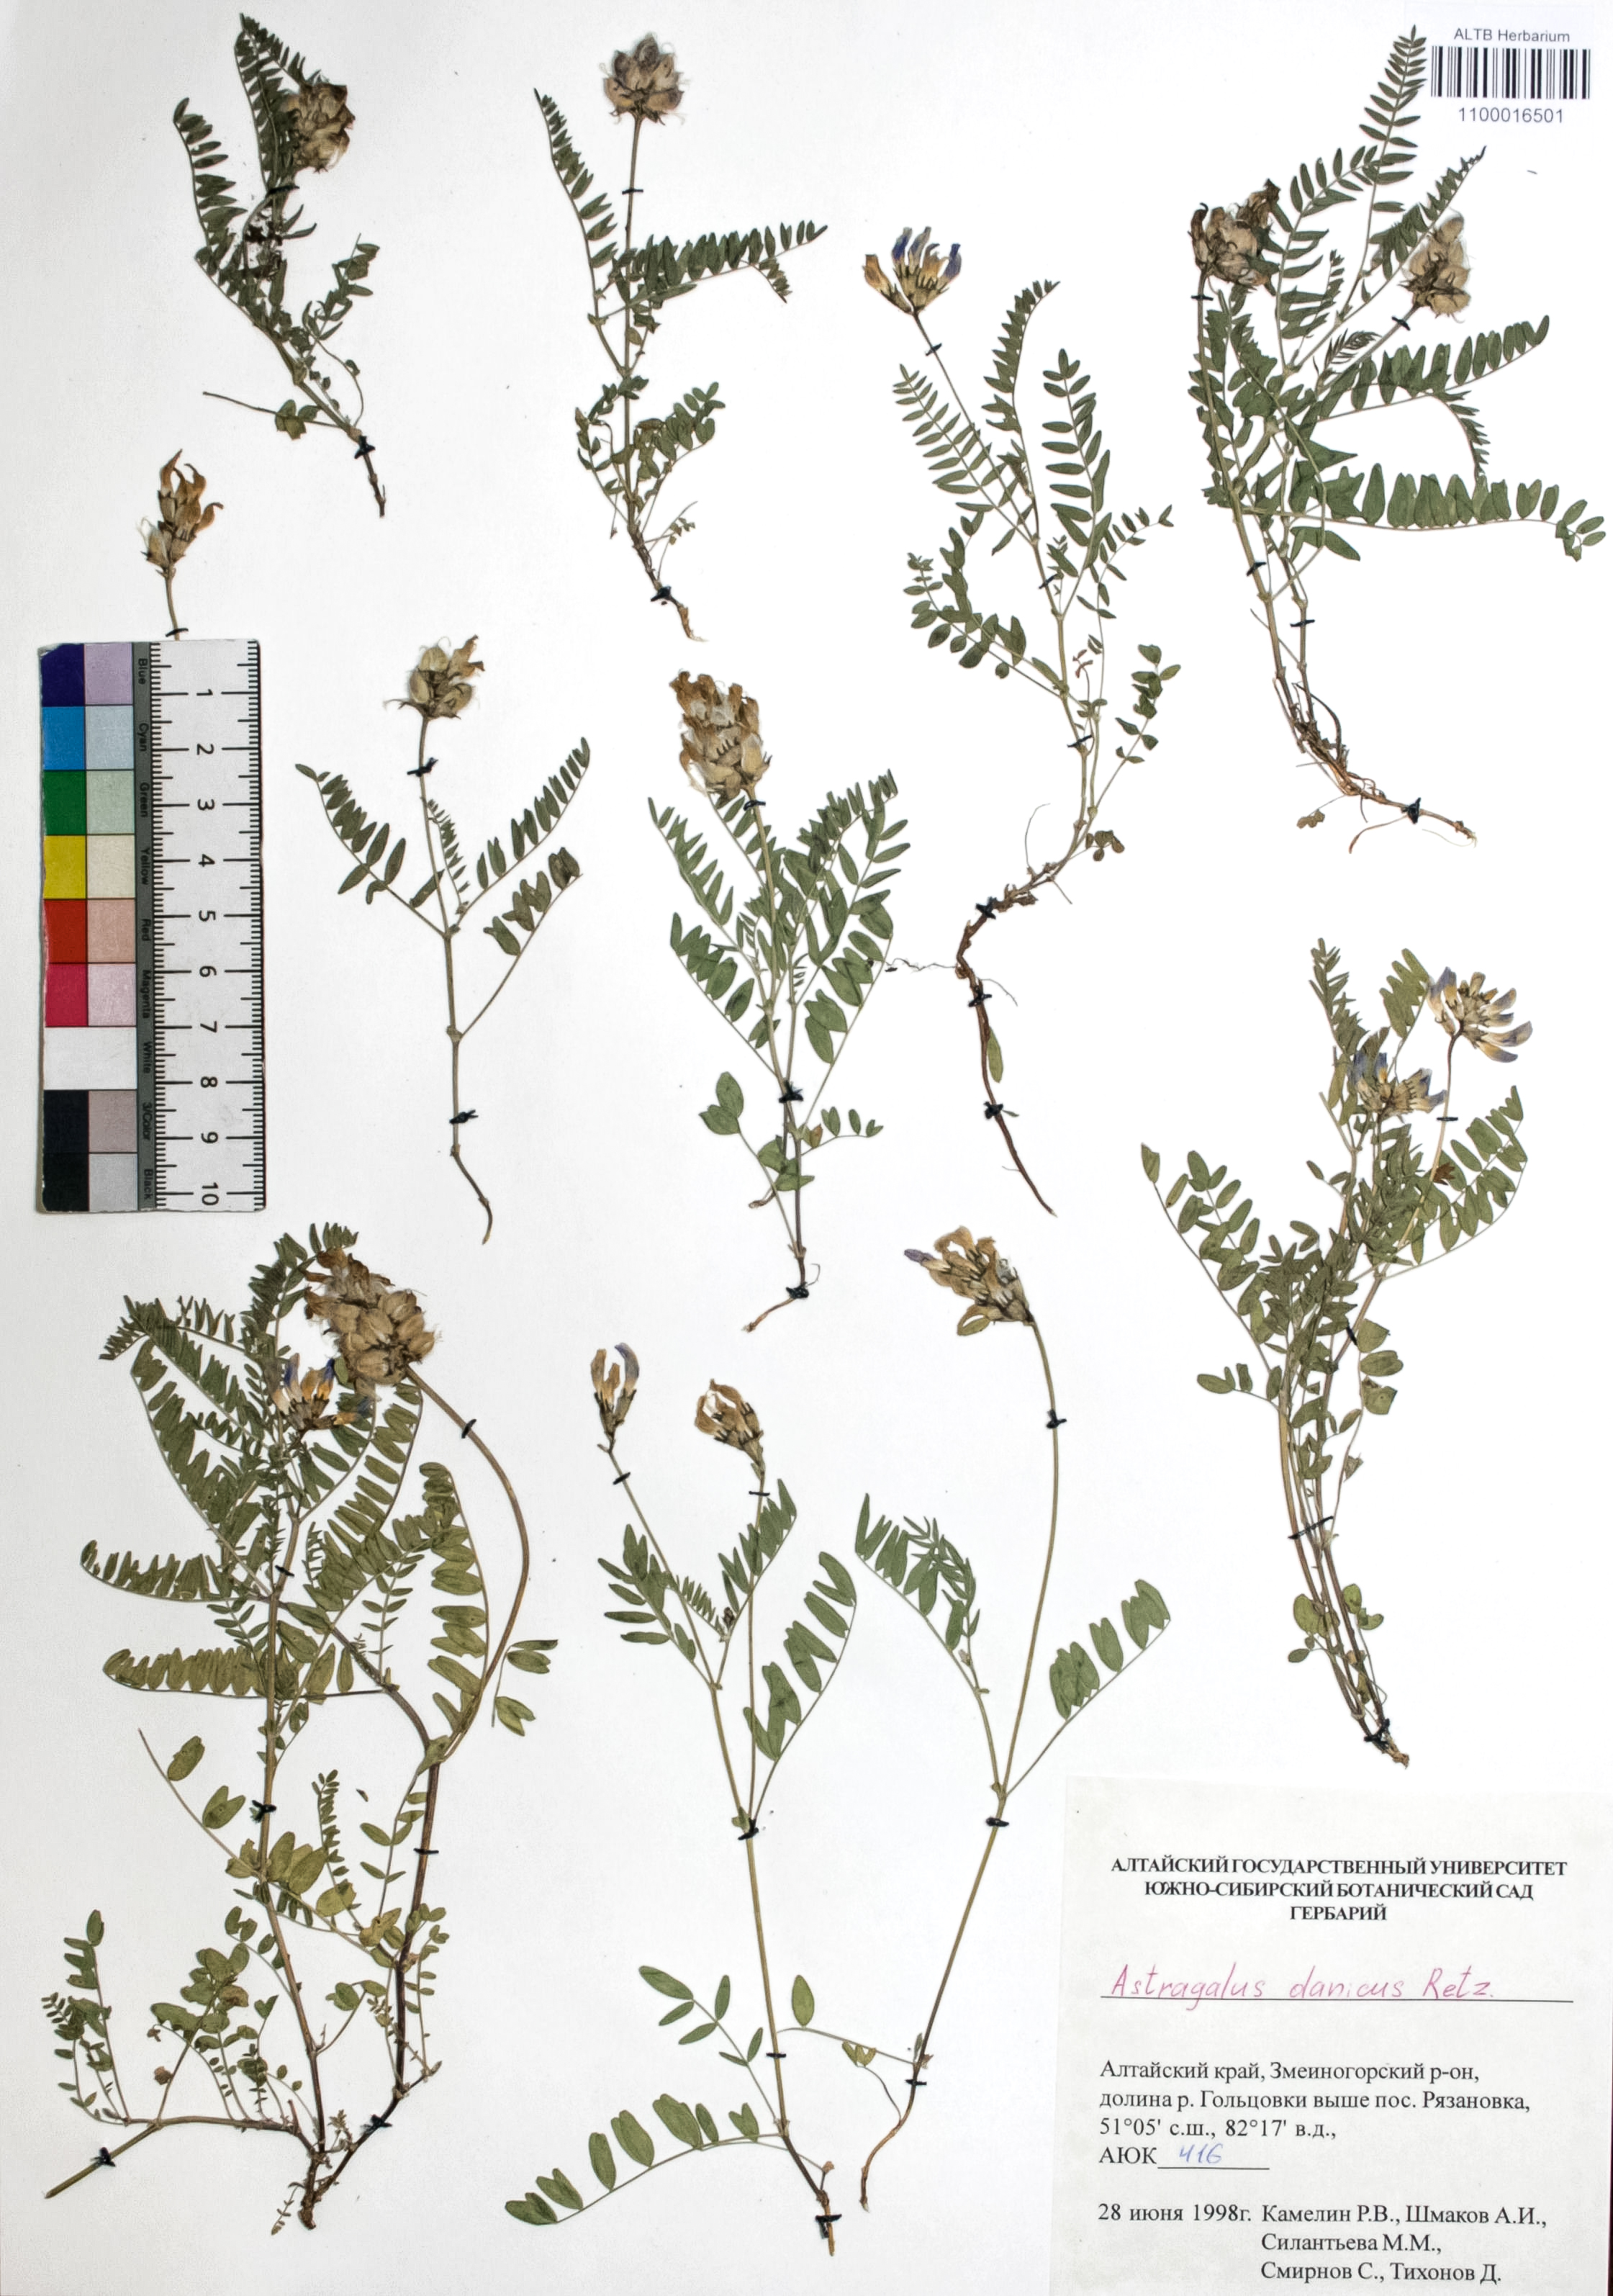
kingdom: Plantae
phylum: Tracheophyta
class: Magnoliopsida
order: Fabales
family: Fabaceae
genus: Astragalus
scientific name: Astragalus danicus
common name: Purple milk-vetch
